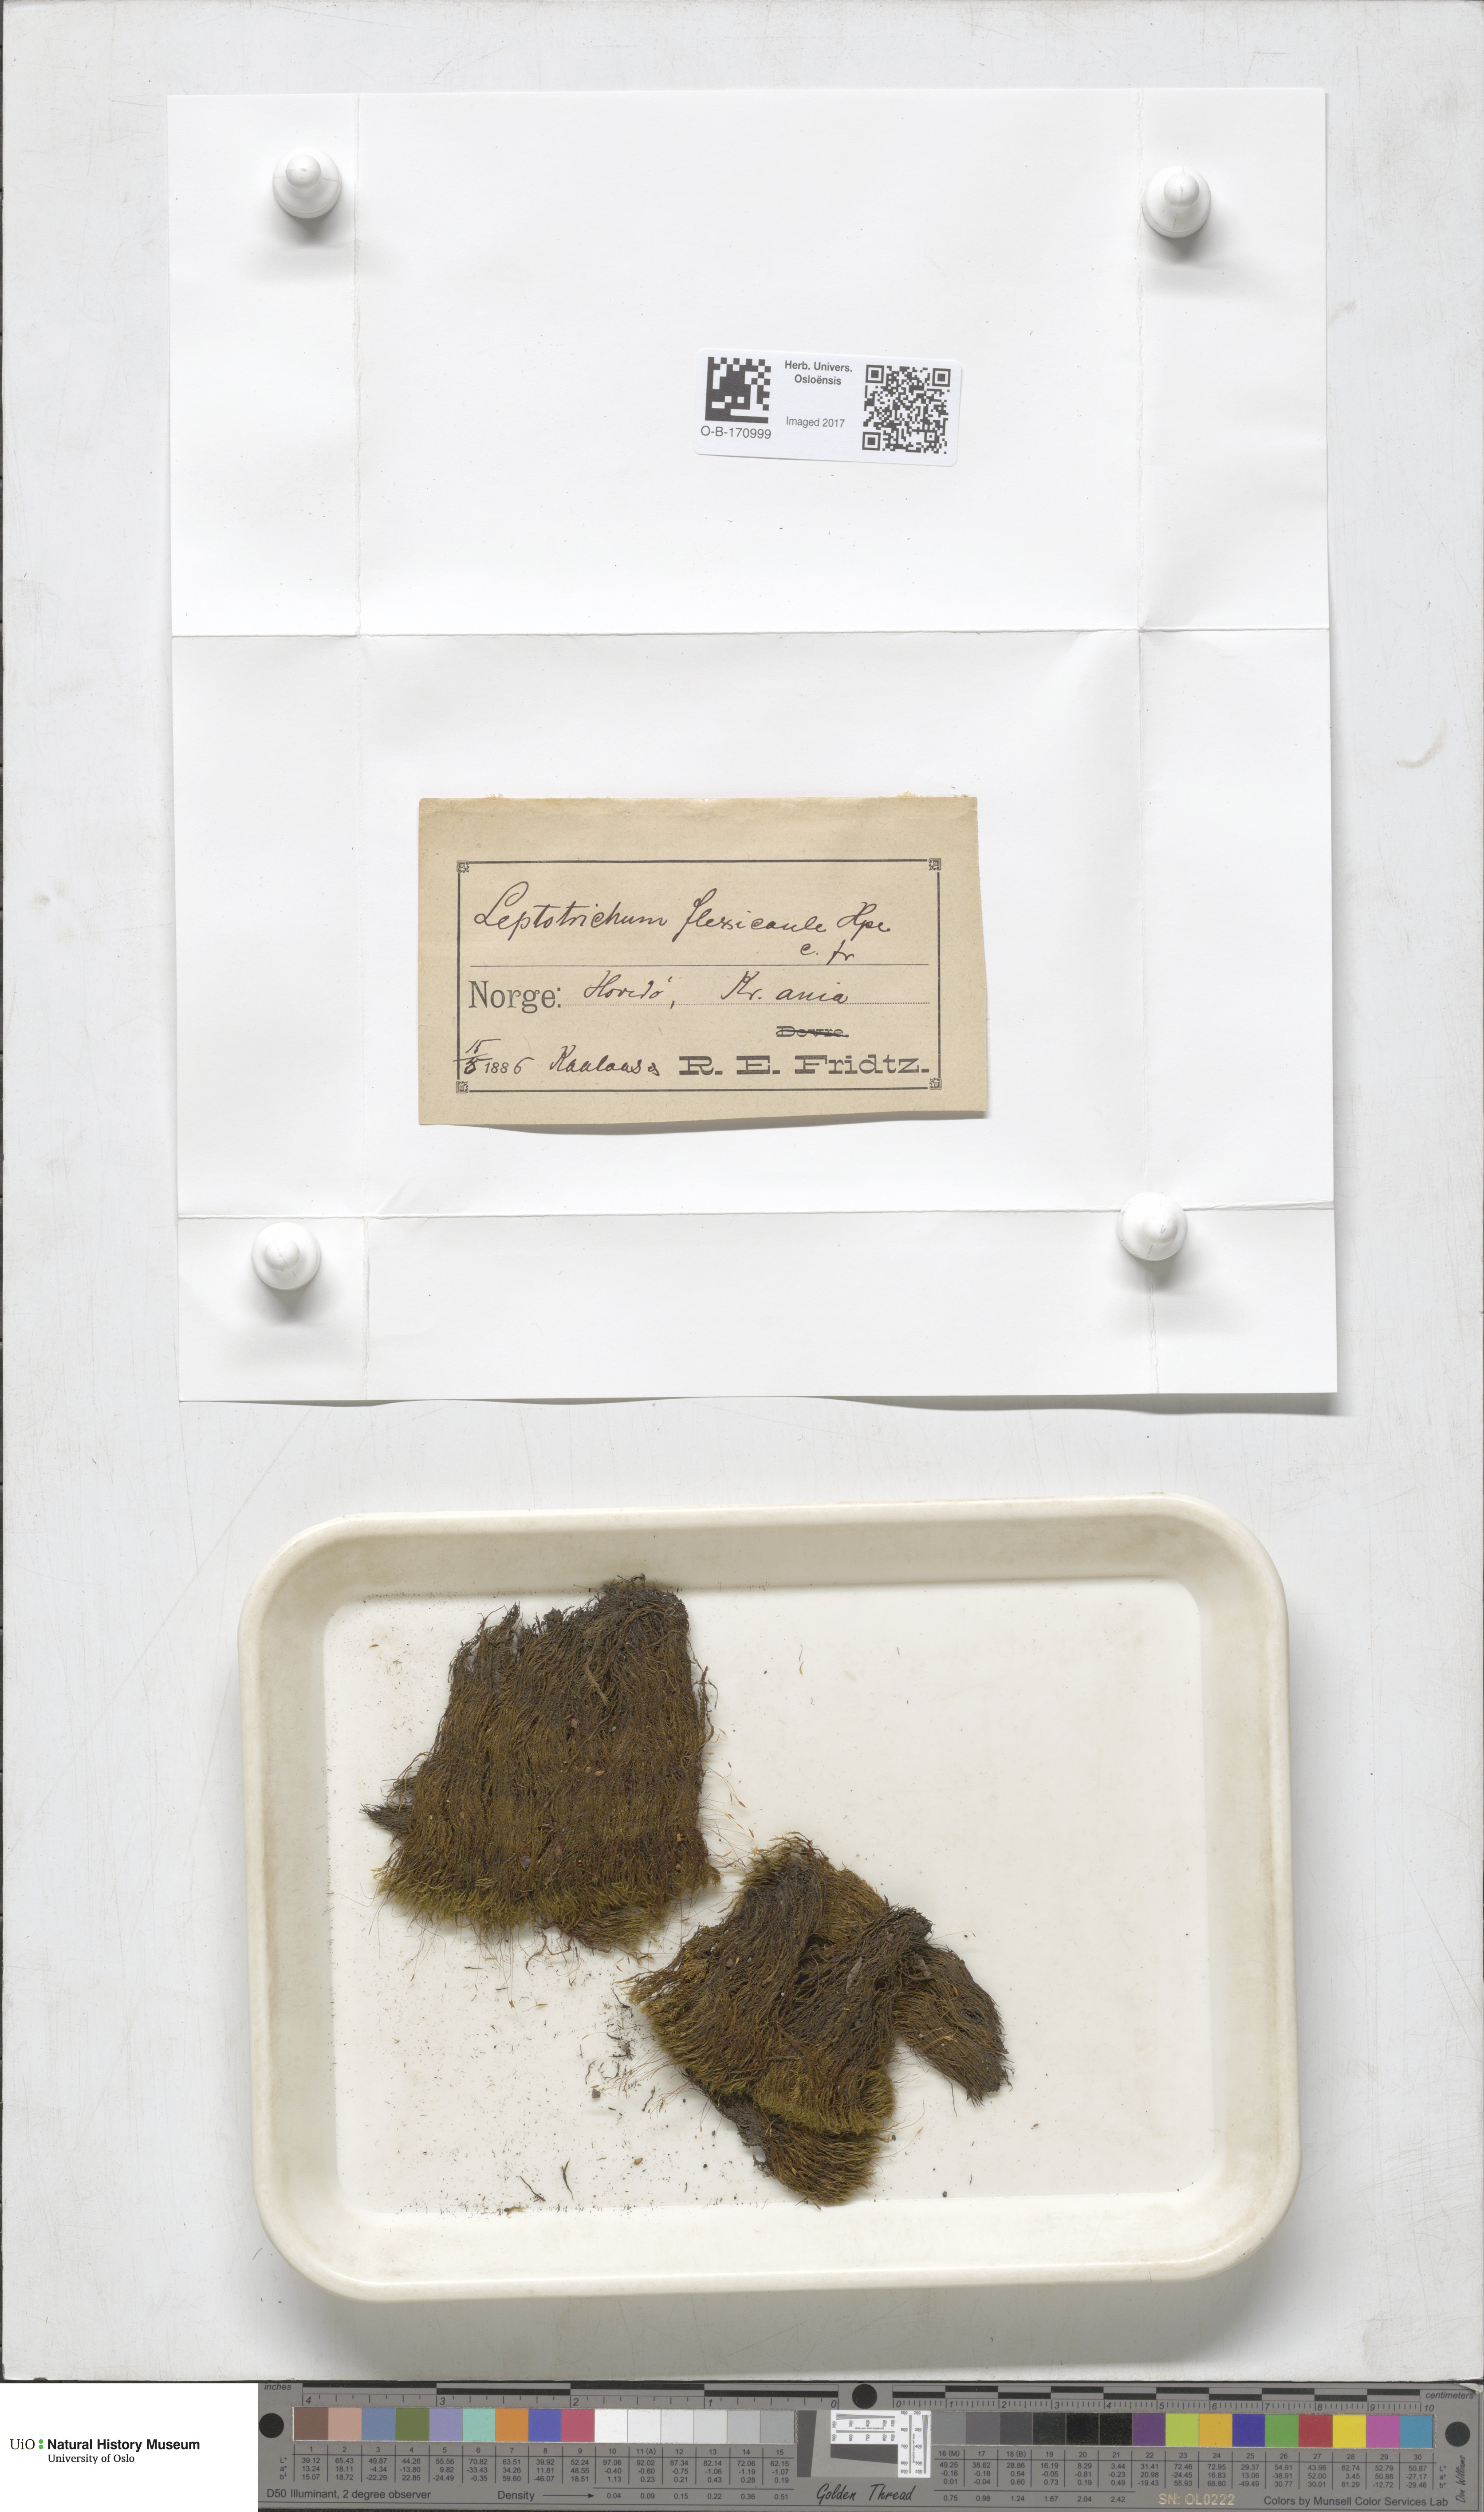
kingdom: Plantae
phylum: Bryophyta
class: Bryopsida
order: Scouleriales
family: Flexitrichaceae
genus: Flexitrichum
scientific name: Flexitrichum flexicaule
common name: Bendy ditrichum
